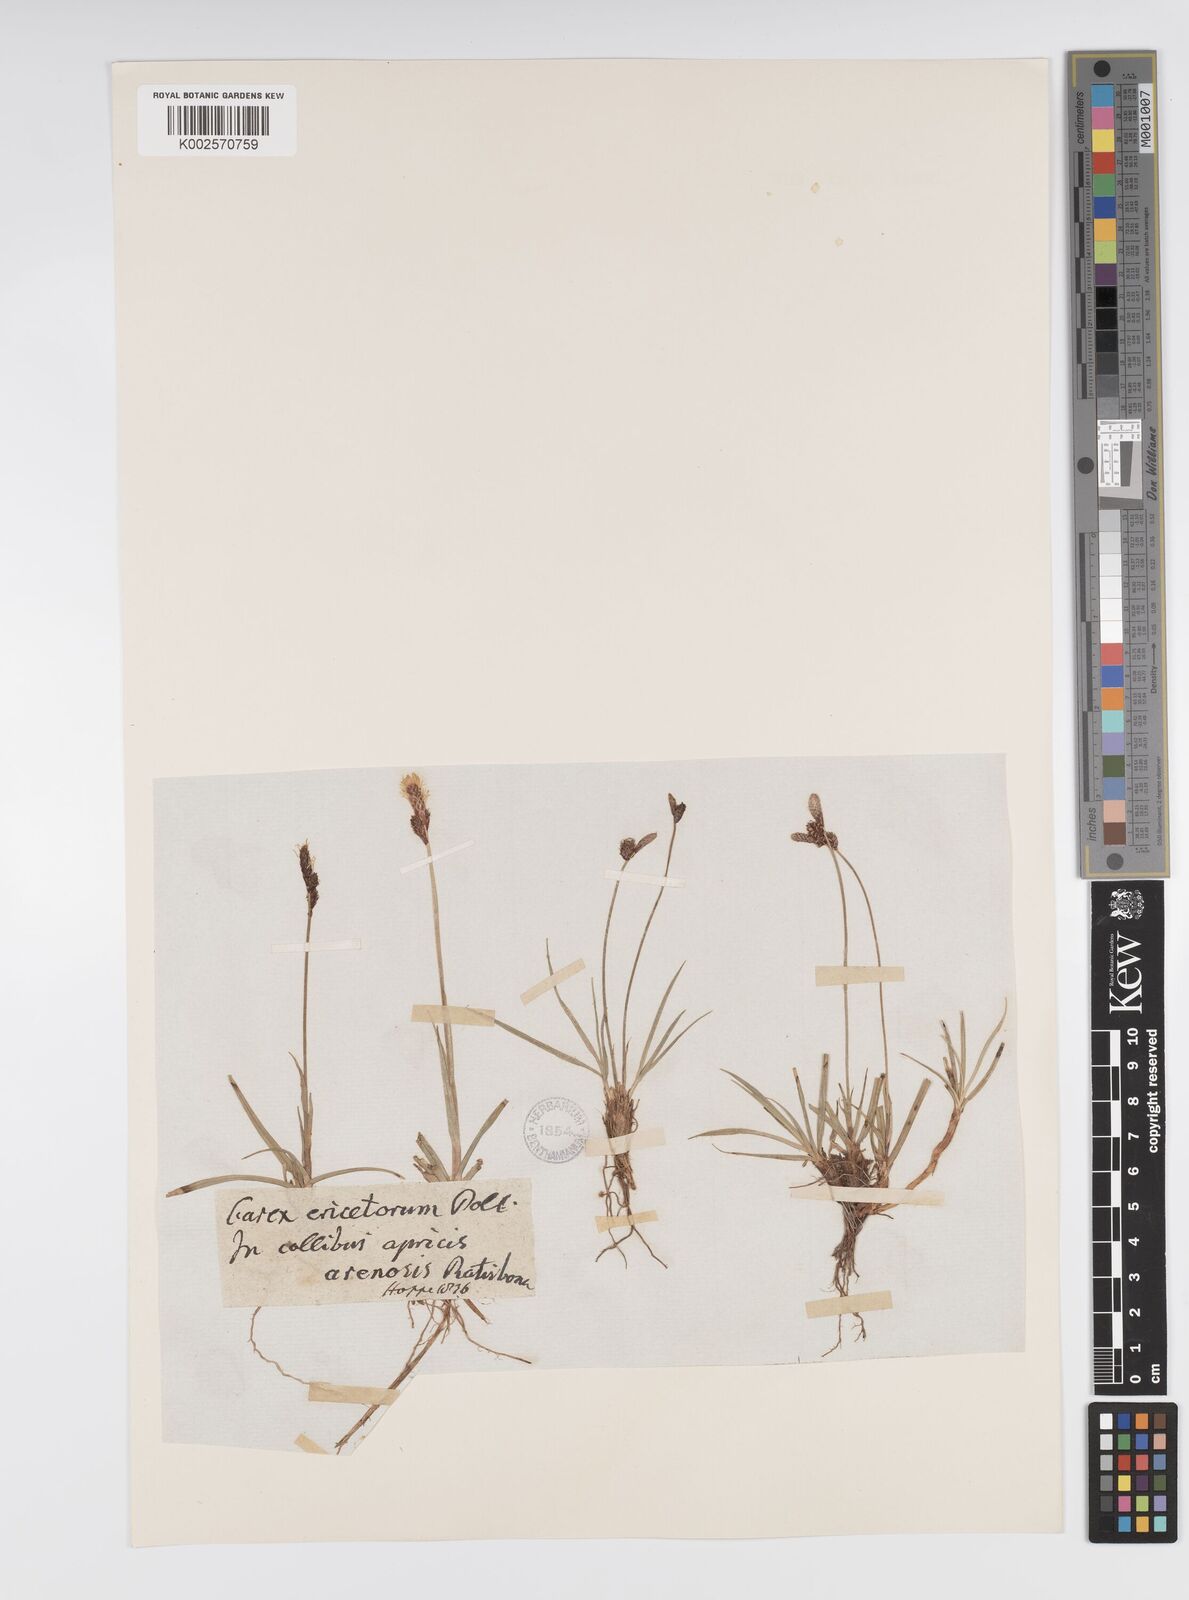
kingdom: Plantae
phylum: Tracheophyta
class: Liliopsida
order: Poales
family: Cyperaceae
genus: Carex
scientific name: Carex ericetorum
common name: Rare spring-sedge
